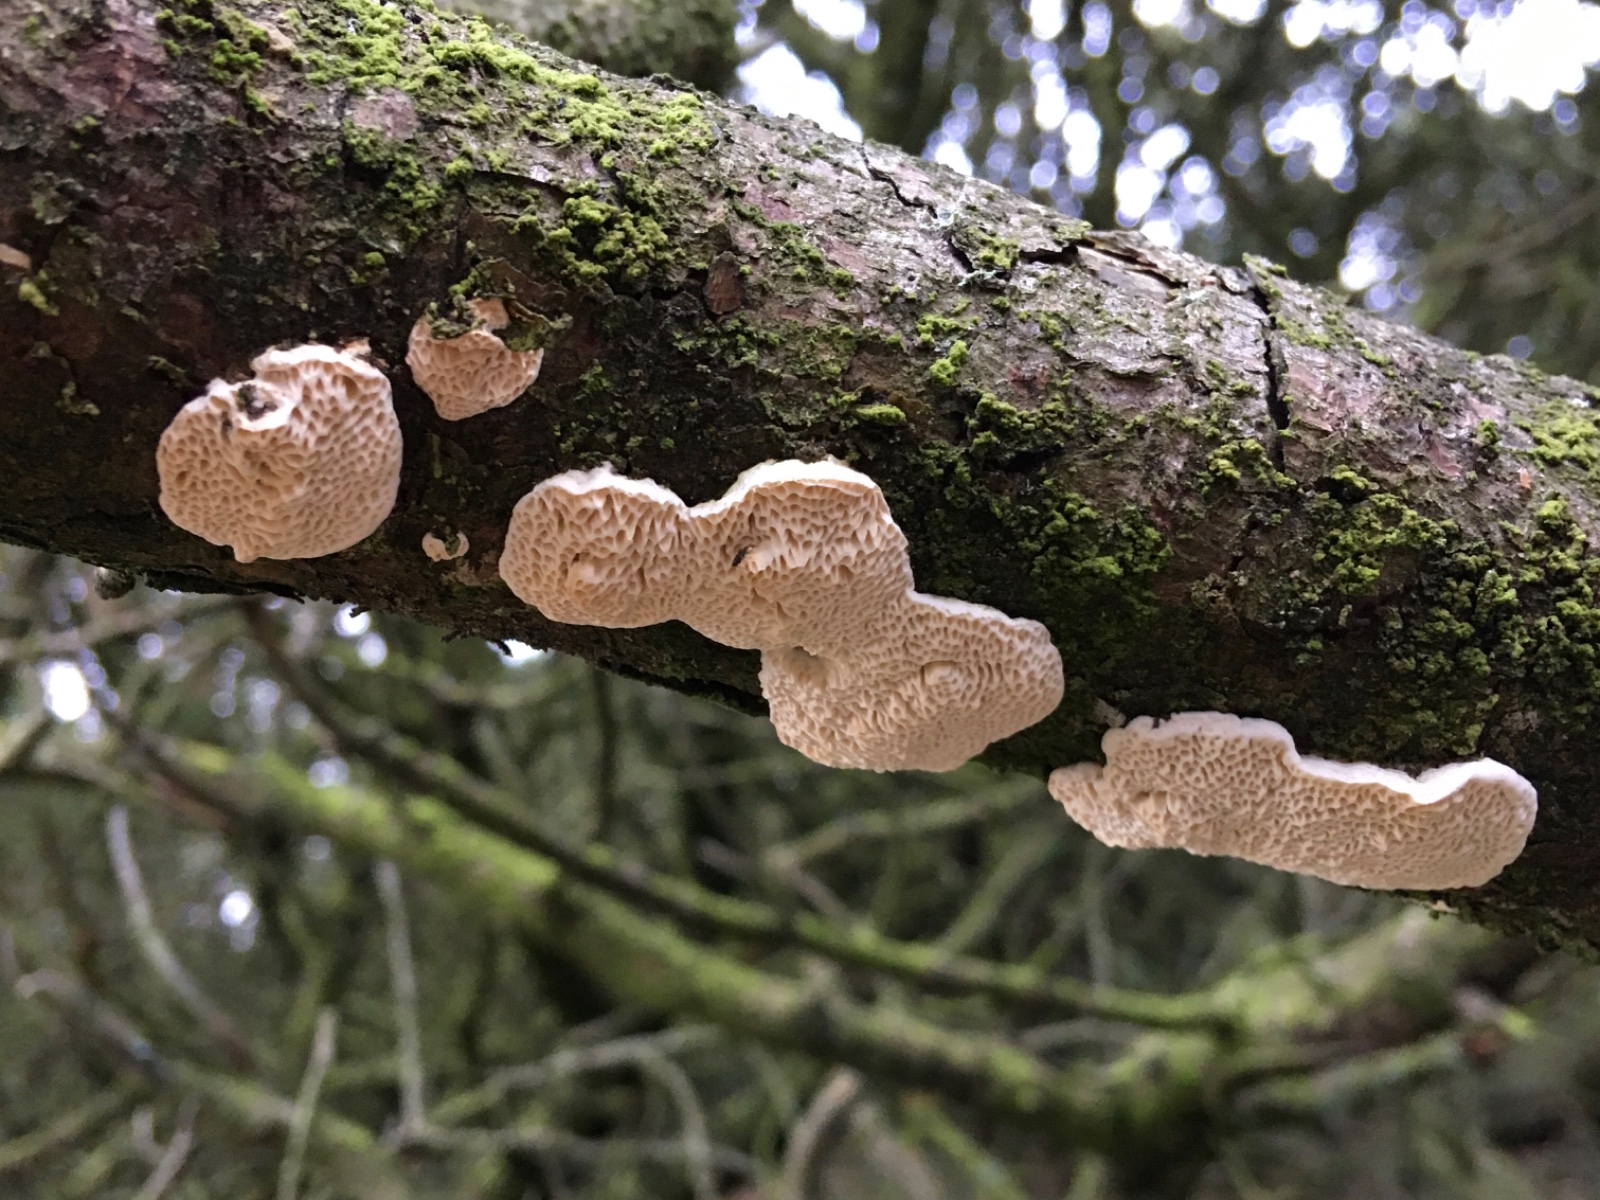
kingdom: Fungi
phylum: Basidiomycota
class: Agaricomycetes
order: Polyporales
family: Fomitopsidaceae
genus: Fomitopsis
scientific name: Fomitopsis
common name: fyrre-skiveporesvamp
